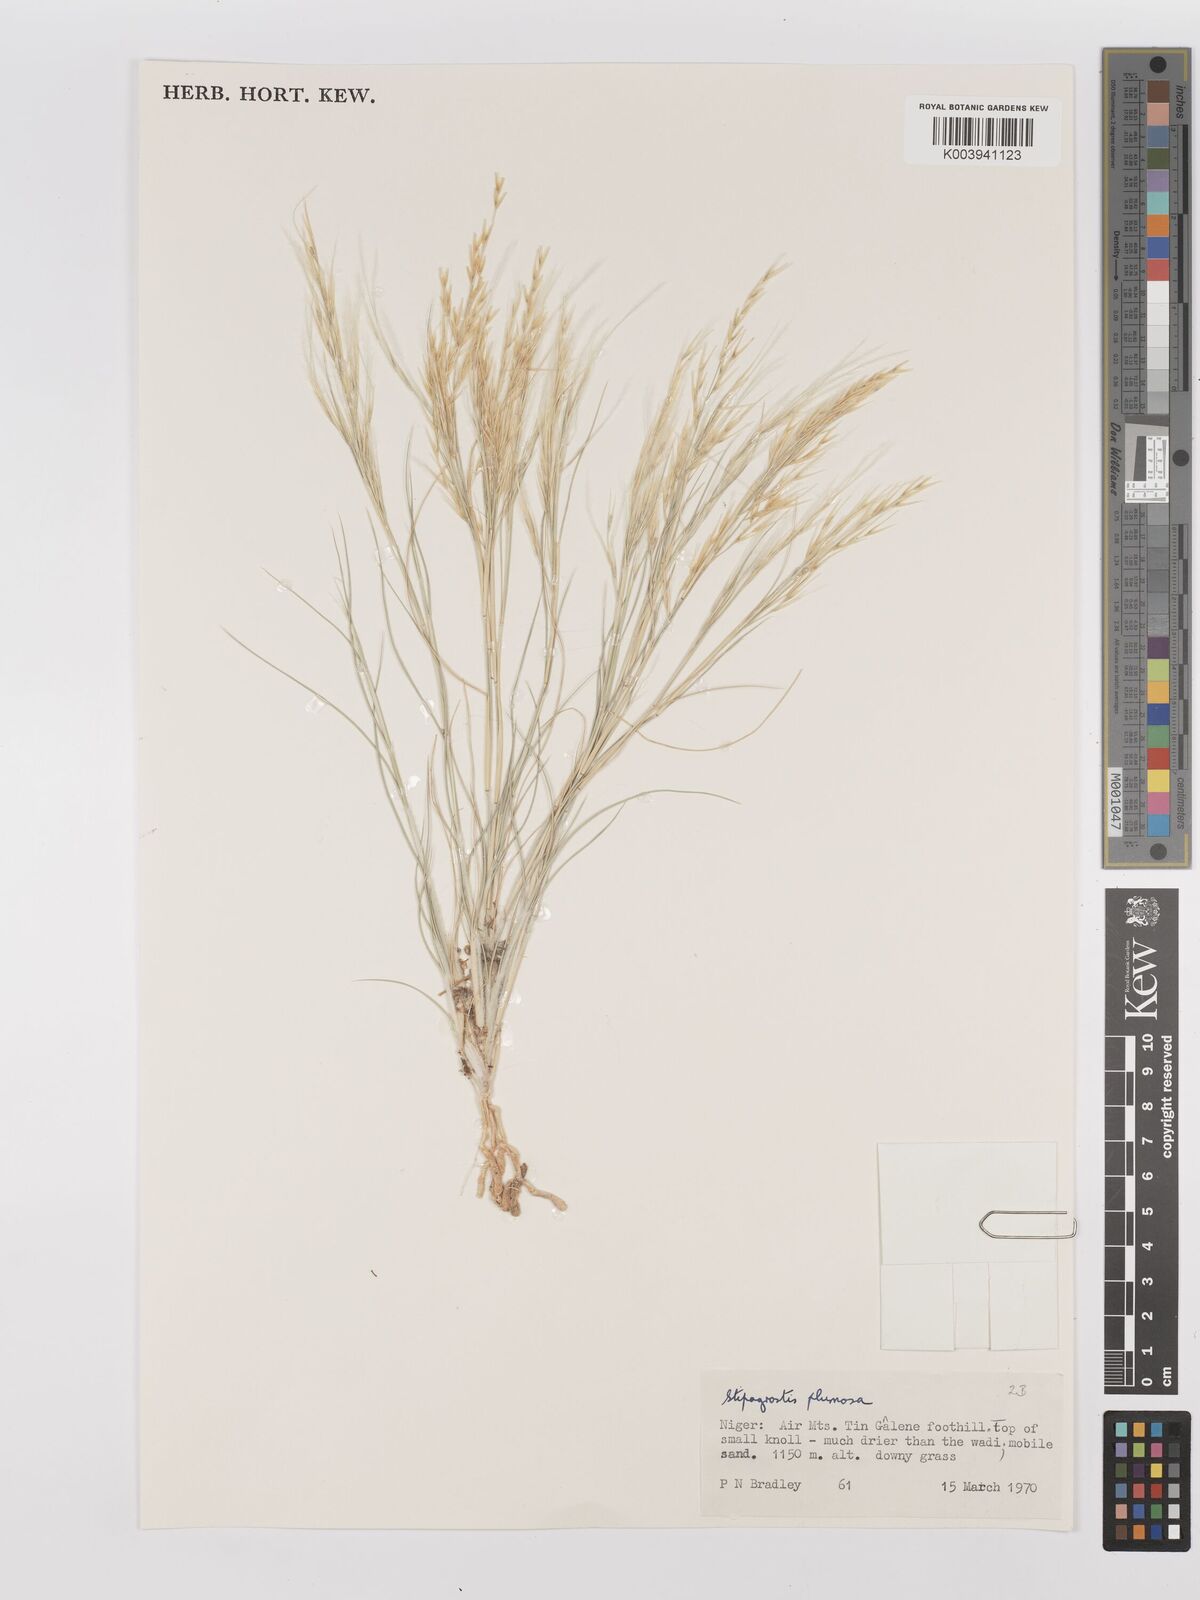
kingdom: Plantae
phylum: Tracheophyta
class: Liliopsida
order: Poales
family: Poaceae
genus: Stipagrostis
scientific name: Stipagrostis plumosa
